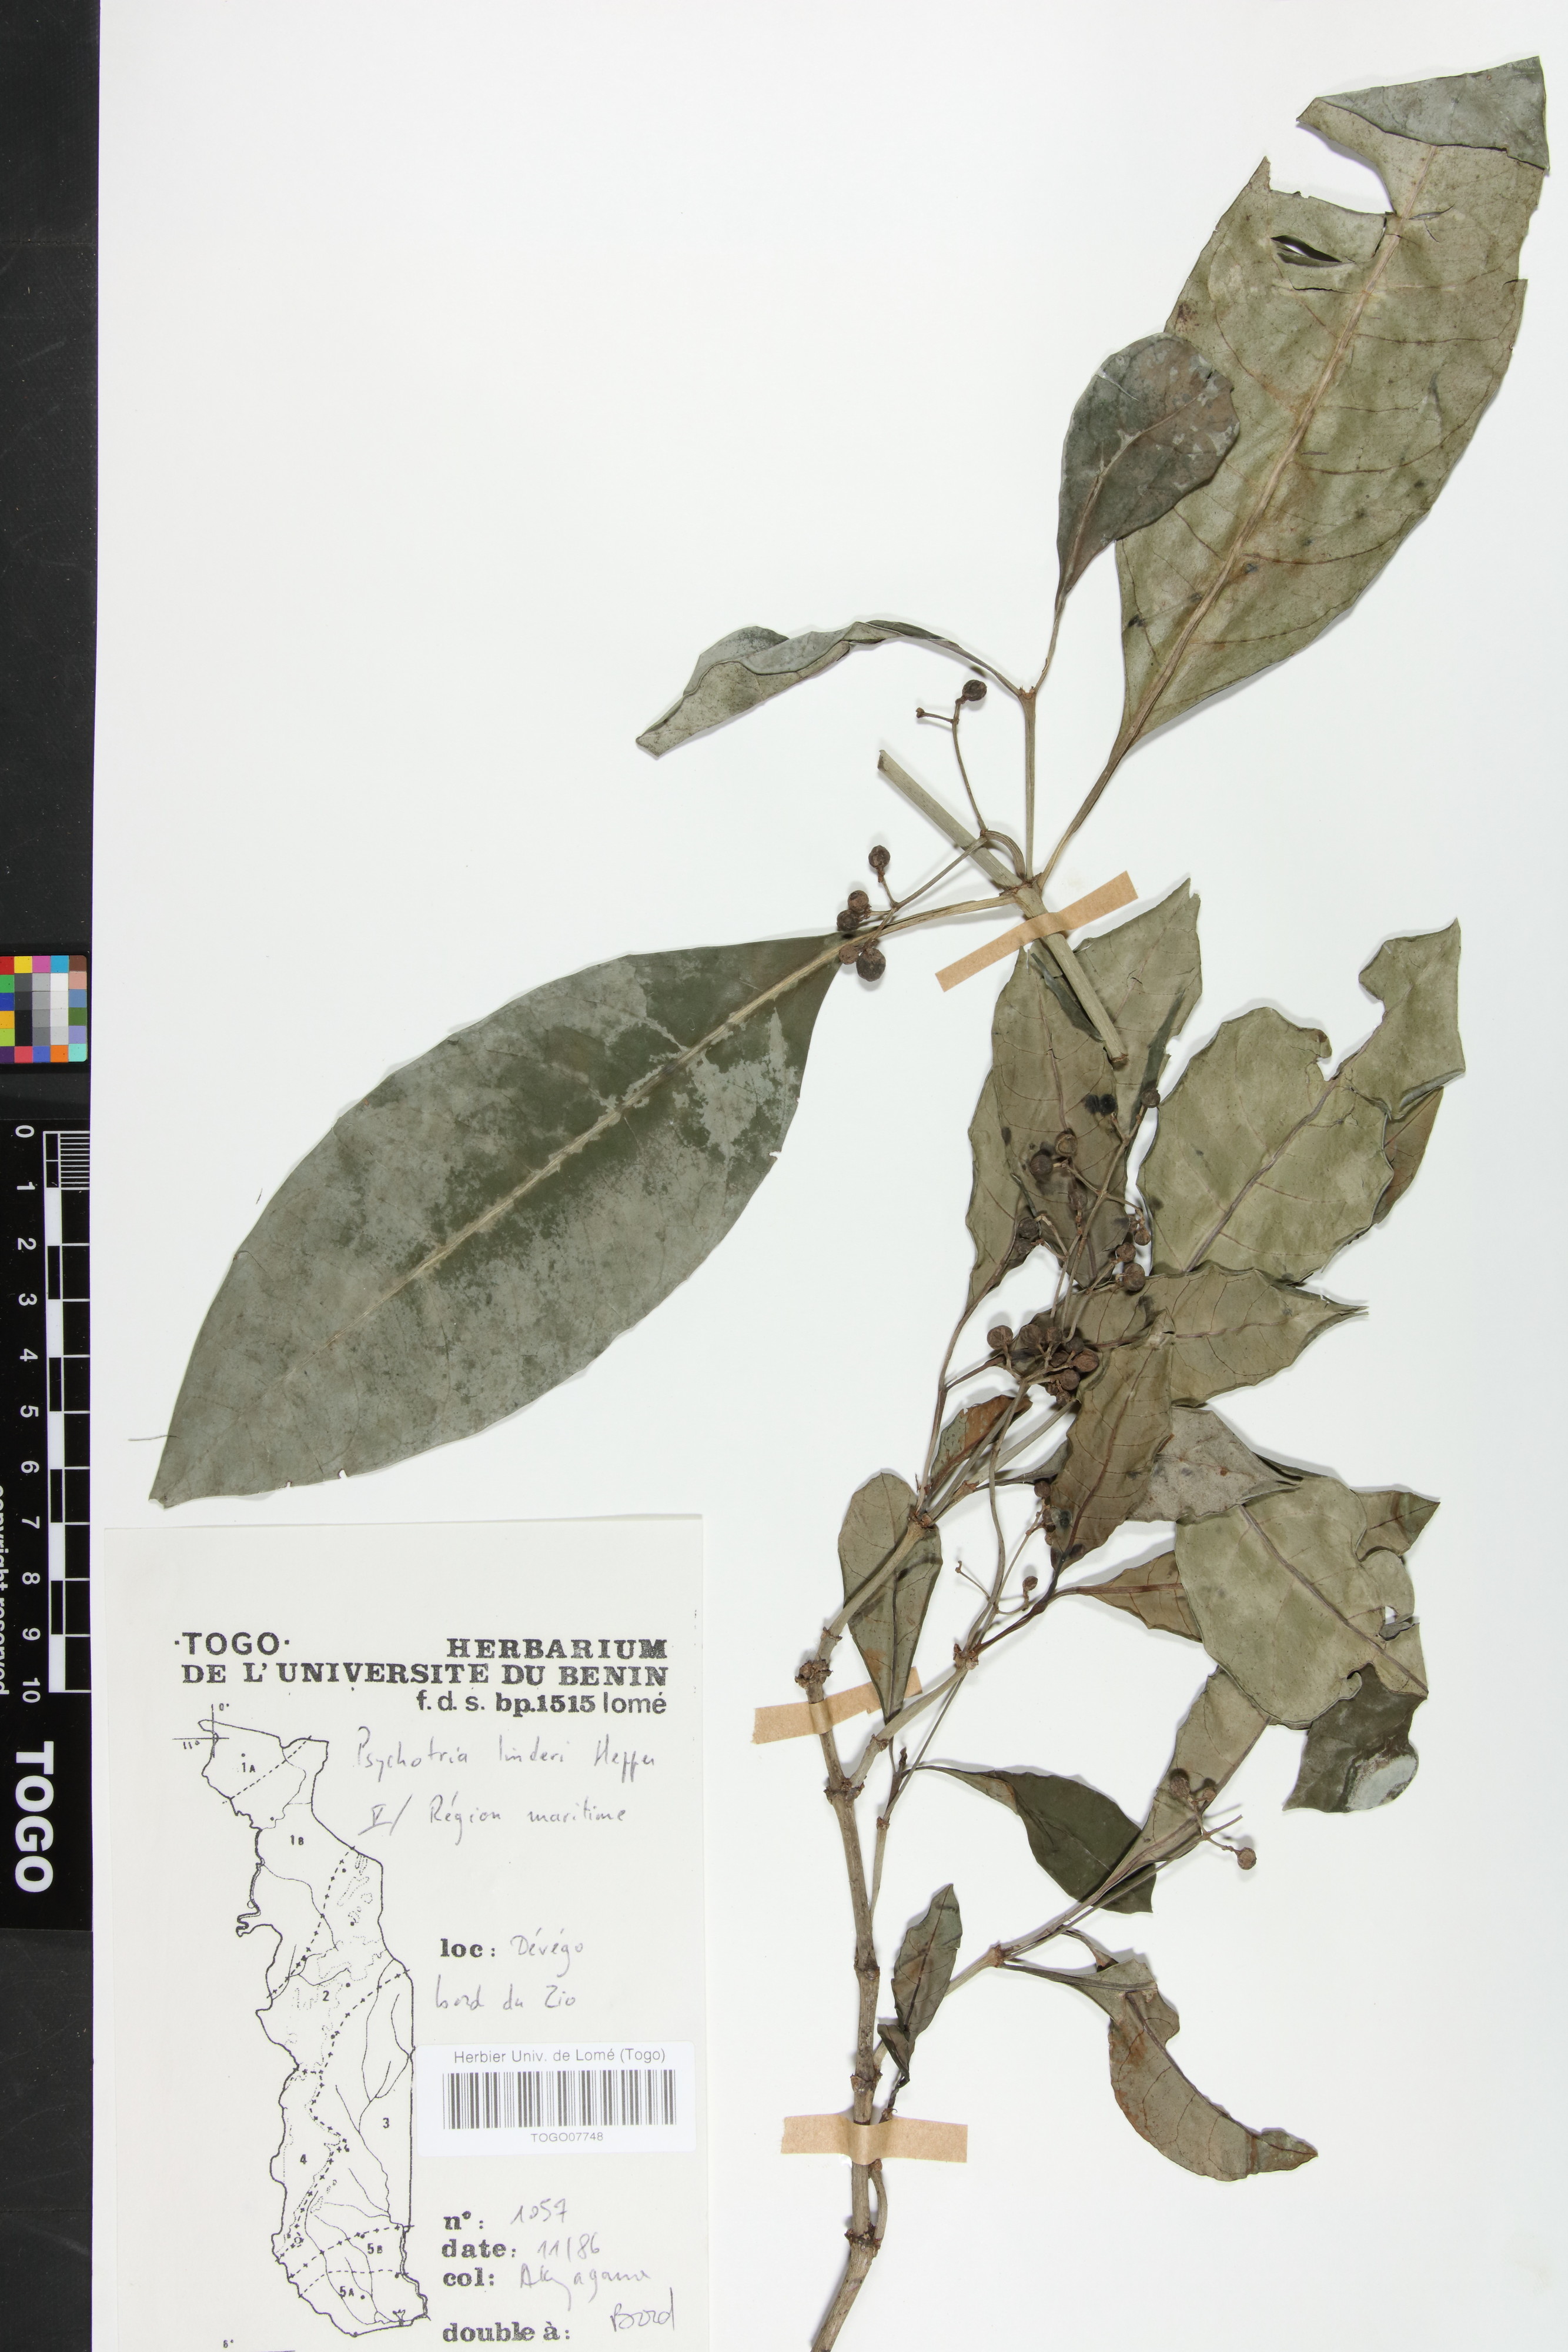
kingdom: Plantae
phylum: Tracheophyta
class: Magnoliopsida
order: Gentianales
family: Rubiaceae
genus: Psychotria
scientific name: Psychotria linderi
